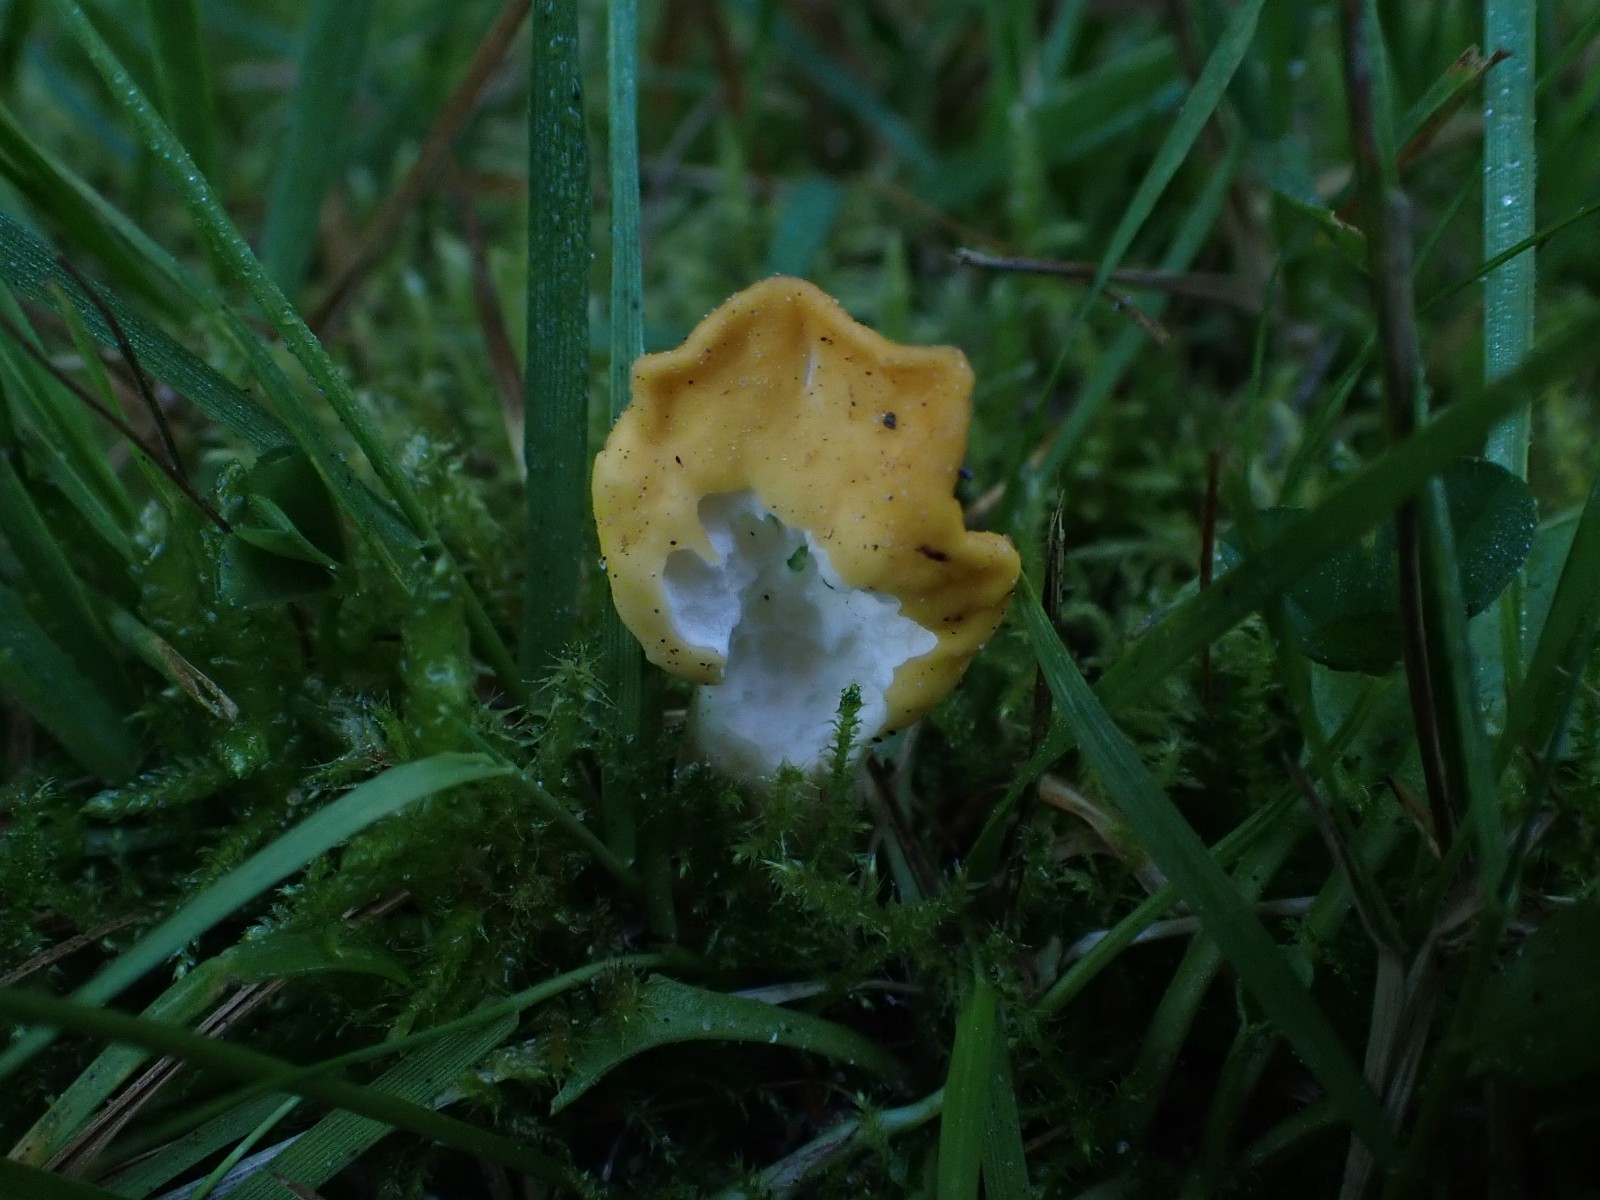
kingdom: Fungi
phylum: Ascomycota
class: Leotiomycetes
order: Rhytismatales
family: Cudoniaceae
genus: Spathularia
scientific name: Spathularia flavida
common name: gul spatelsvamp
